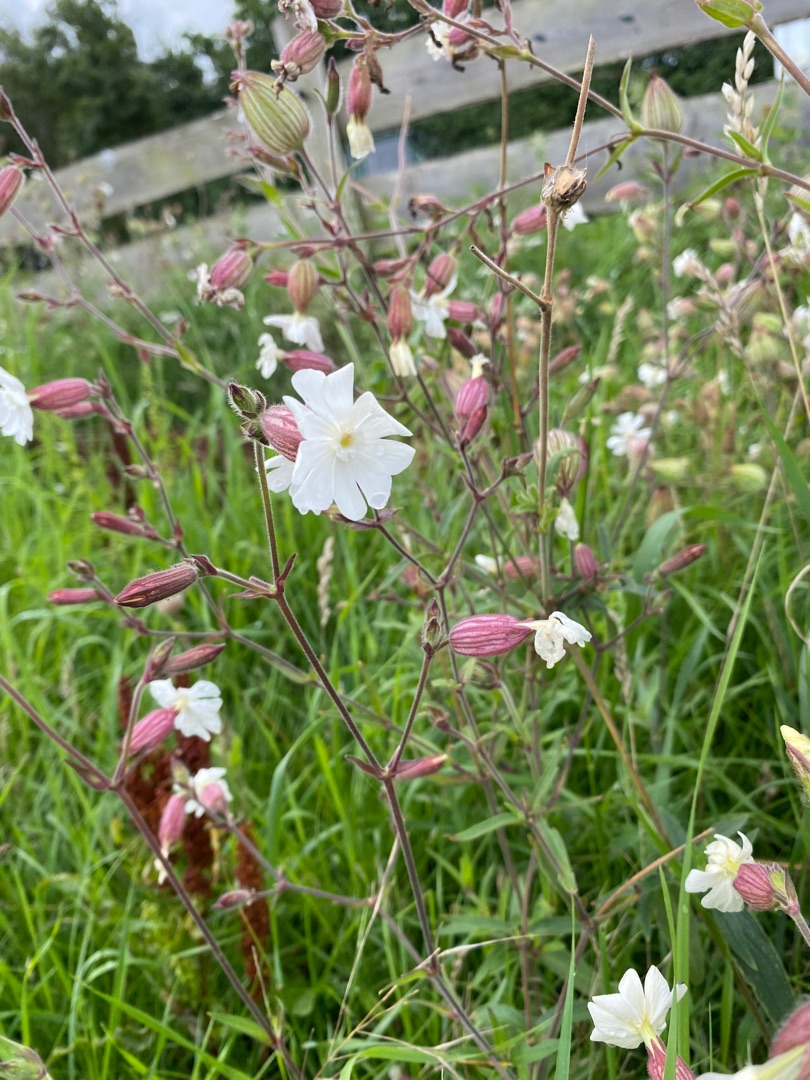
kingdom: Plantae
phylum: Tracheophyta
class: Magnoliopsida
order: Caryophyllales
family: Caryophyllaceae
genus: Silene
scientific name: Silene latifolia
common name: Aftenpragtstjerne
